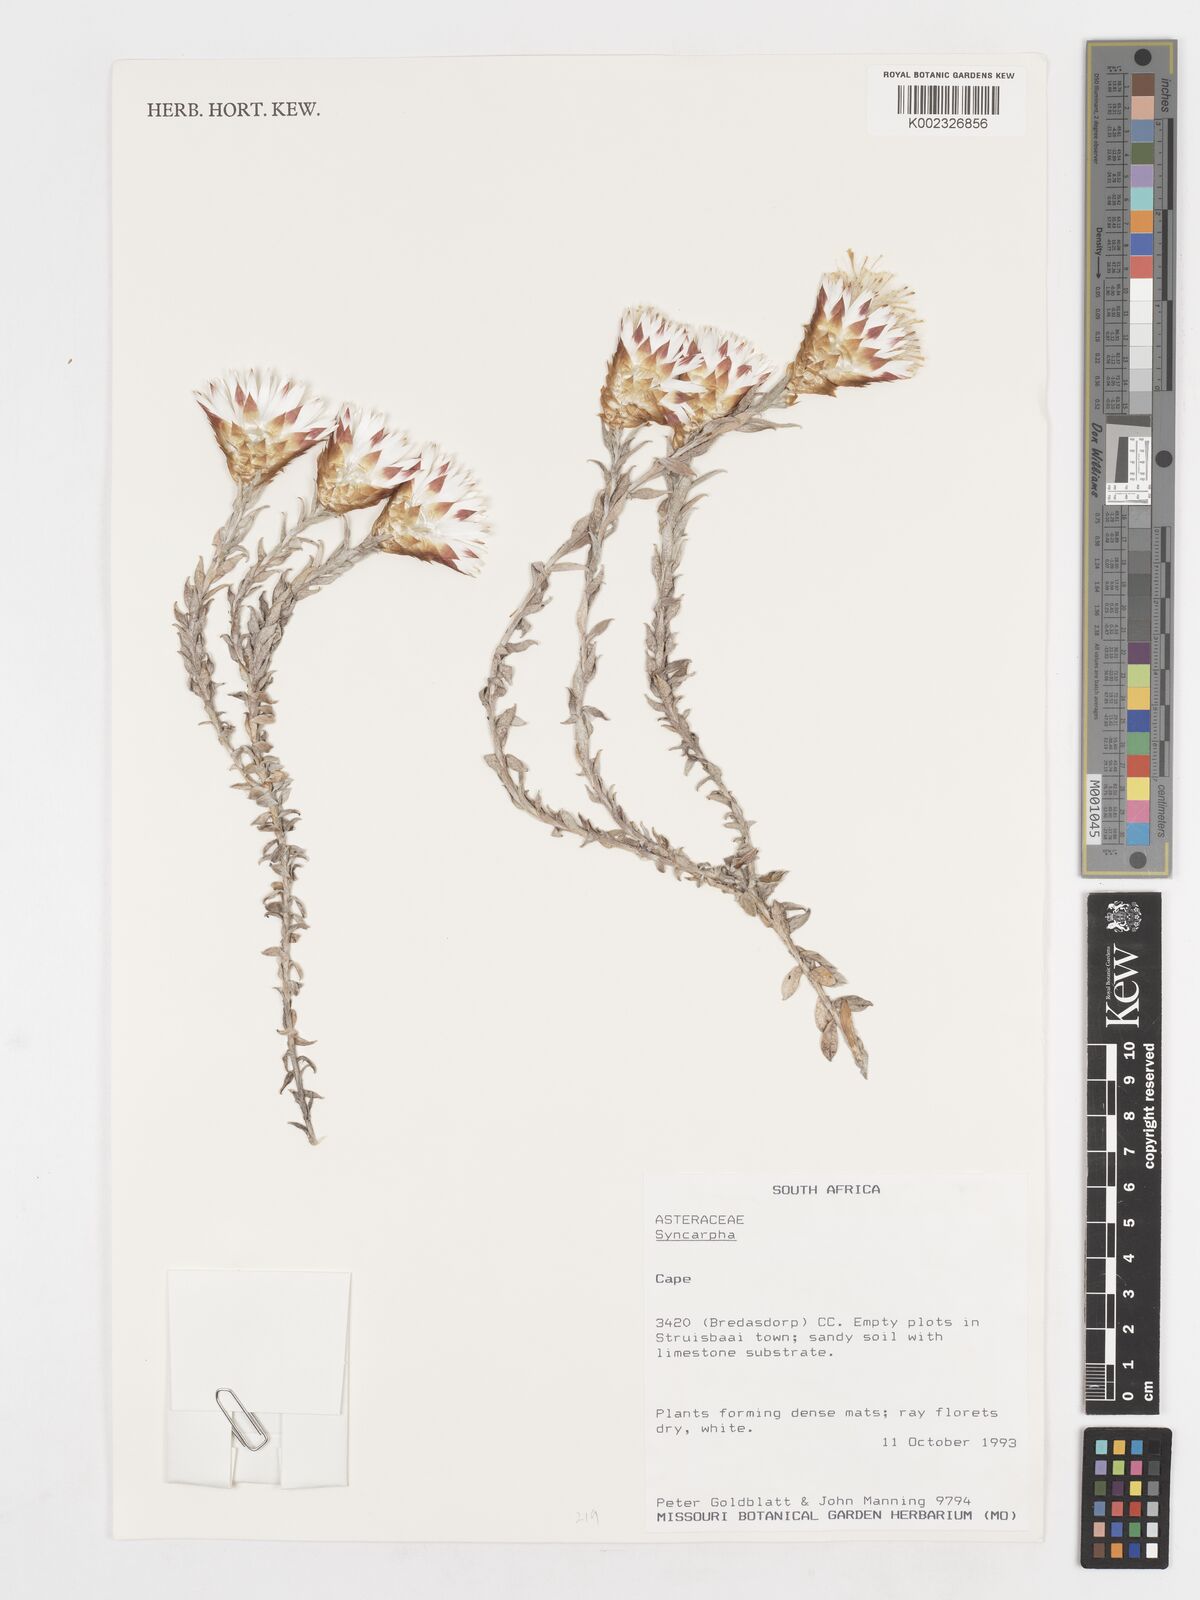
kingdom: Plantae
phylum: Tracheophyta
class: Magnoliopsida
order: Asterales
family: Asteraceae
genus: Syncarpha
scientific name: Syncarpha
